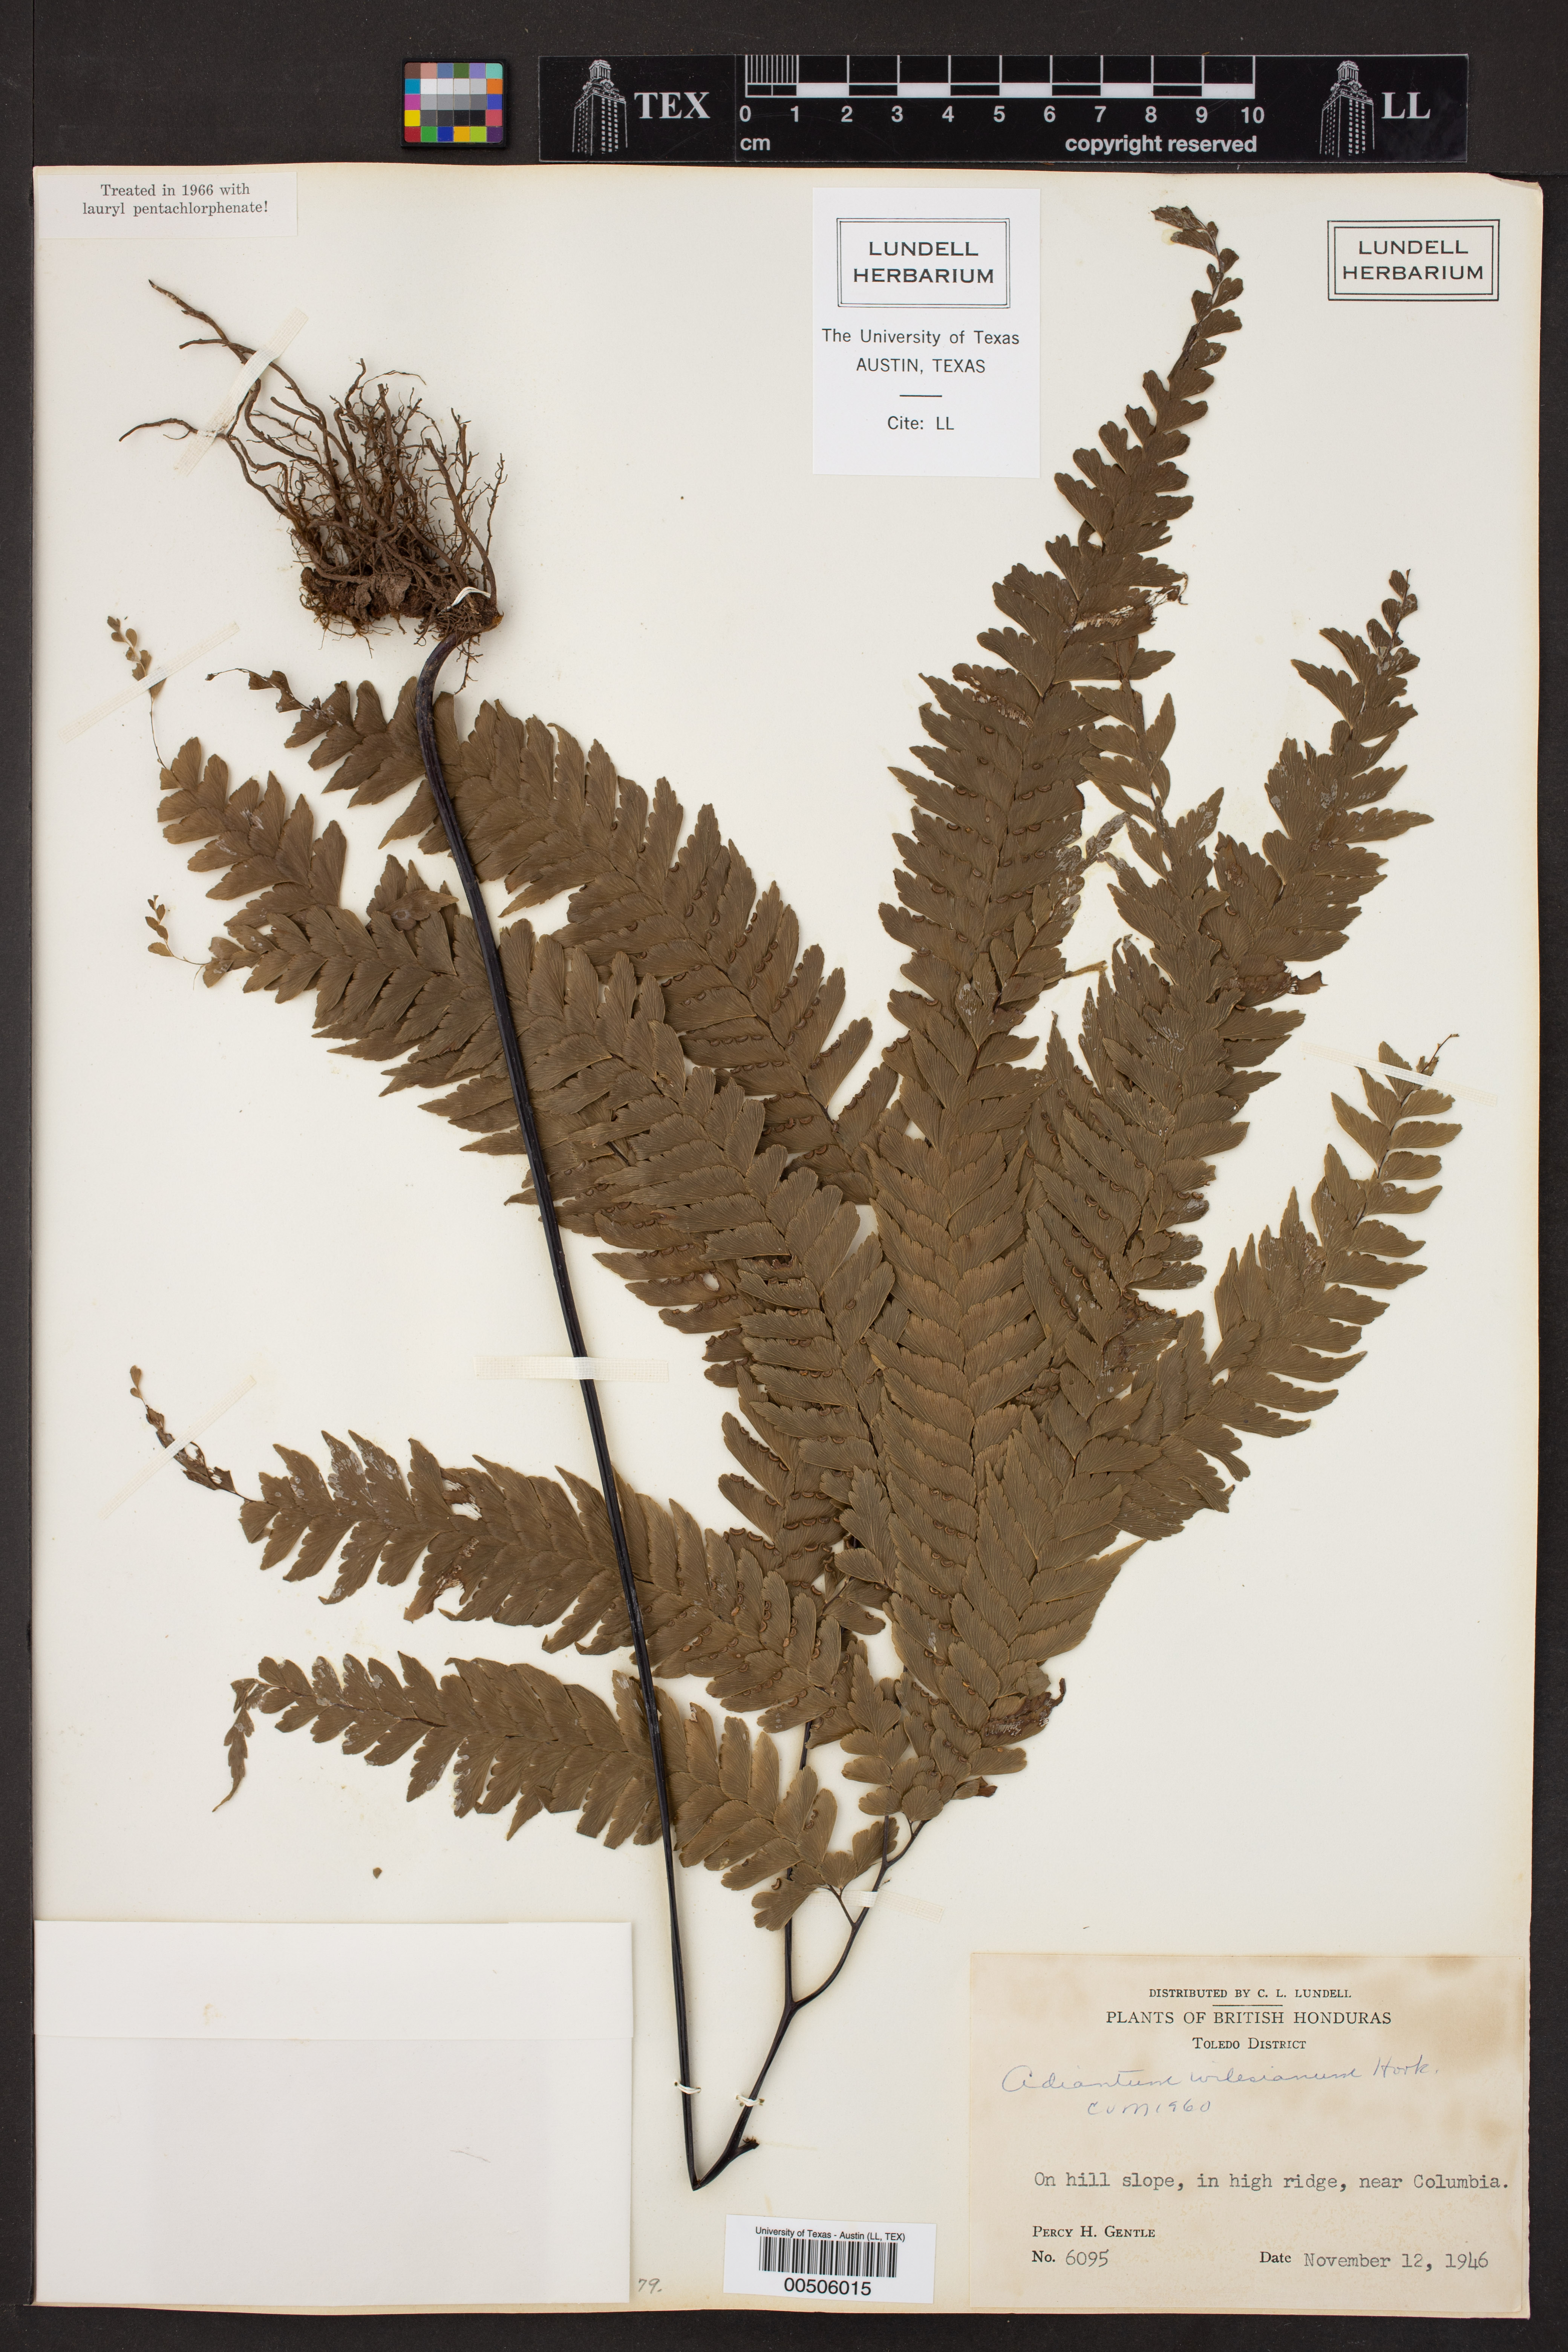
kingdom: Plantae
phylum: Tracheophyta
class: Polypodiopsida
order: Polypodiales
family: Pteridaceae
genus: Adiantum
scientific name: Adiantum wilesianum
